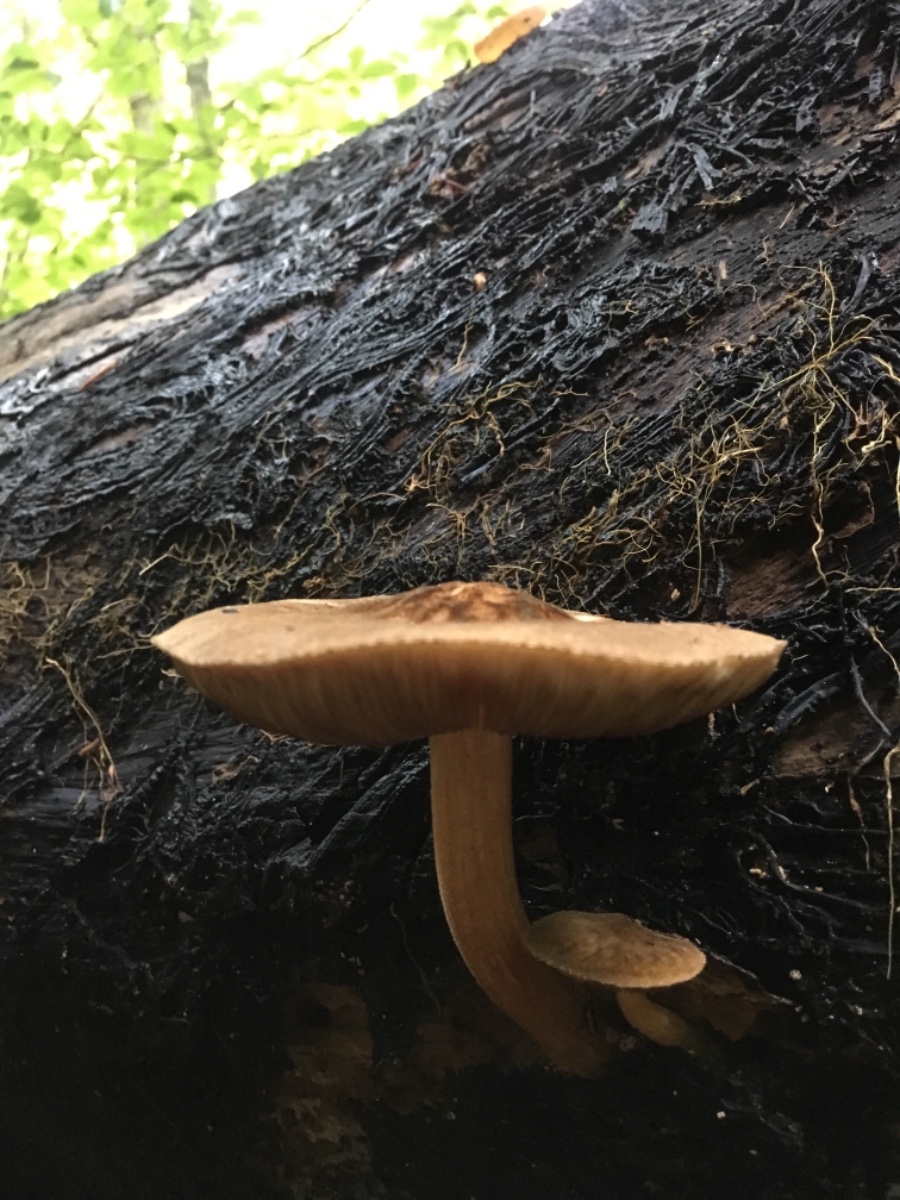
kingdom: Fungi
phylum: Basidiomycota
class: Agaricomycetes
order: Agaricales
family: Pluteaceae
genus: Pluteus
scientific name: Pluteus umbrosus
